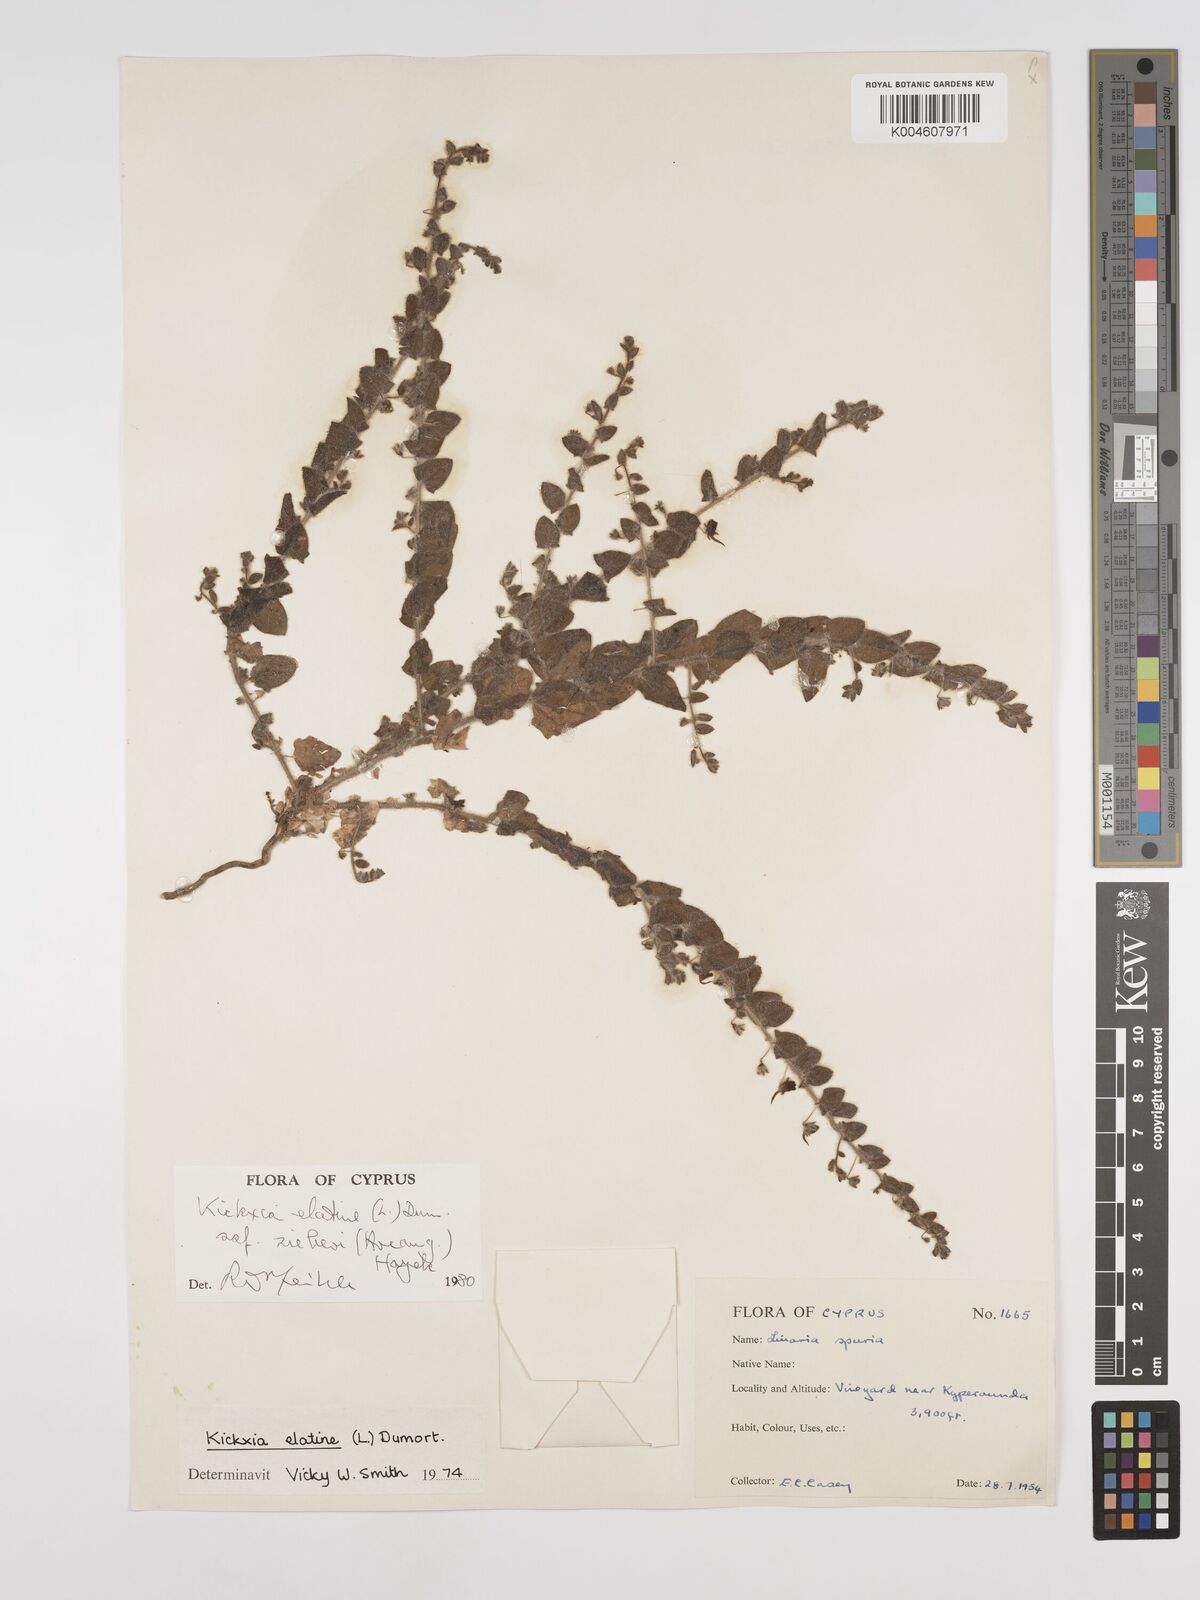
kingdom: Plantae
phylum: Tracheophyta
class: Magnoliopsida
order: Lamiales
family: Plantaginaceae
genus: Kickxia
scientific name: Kickxia
